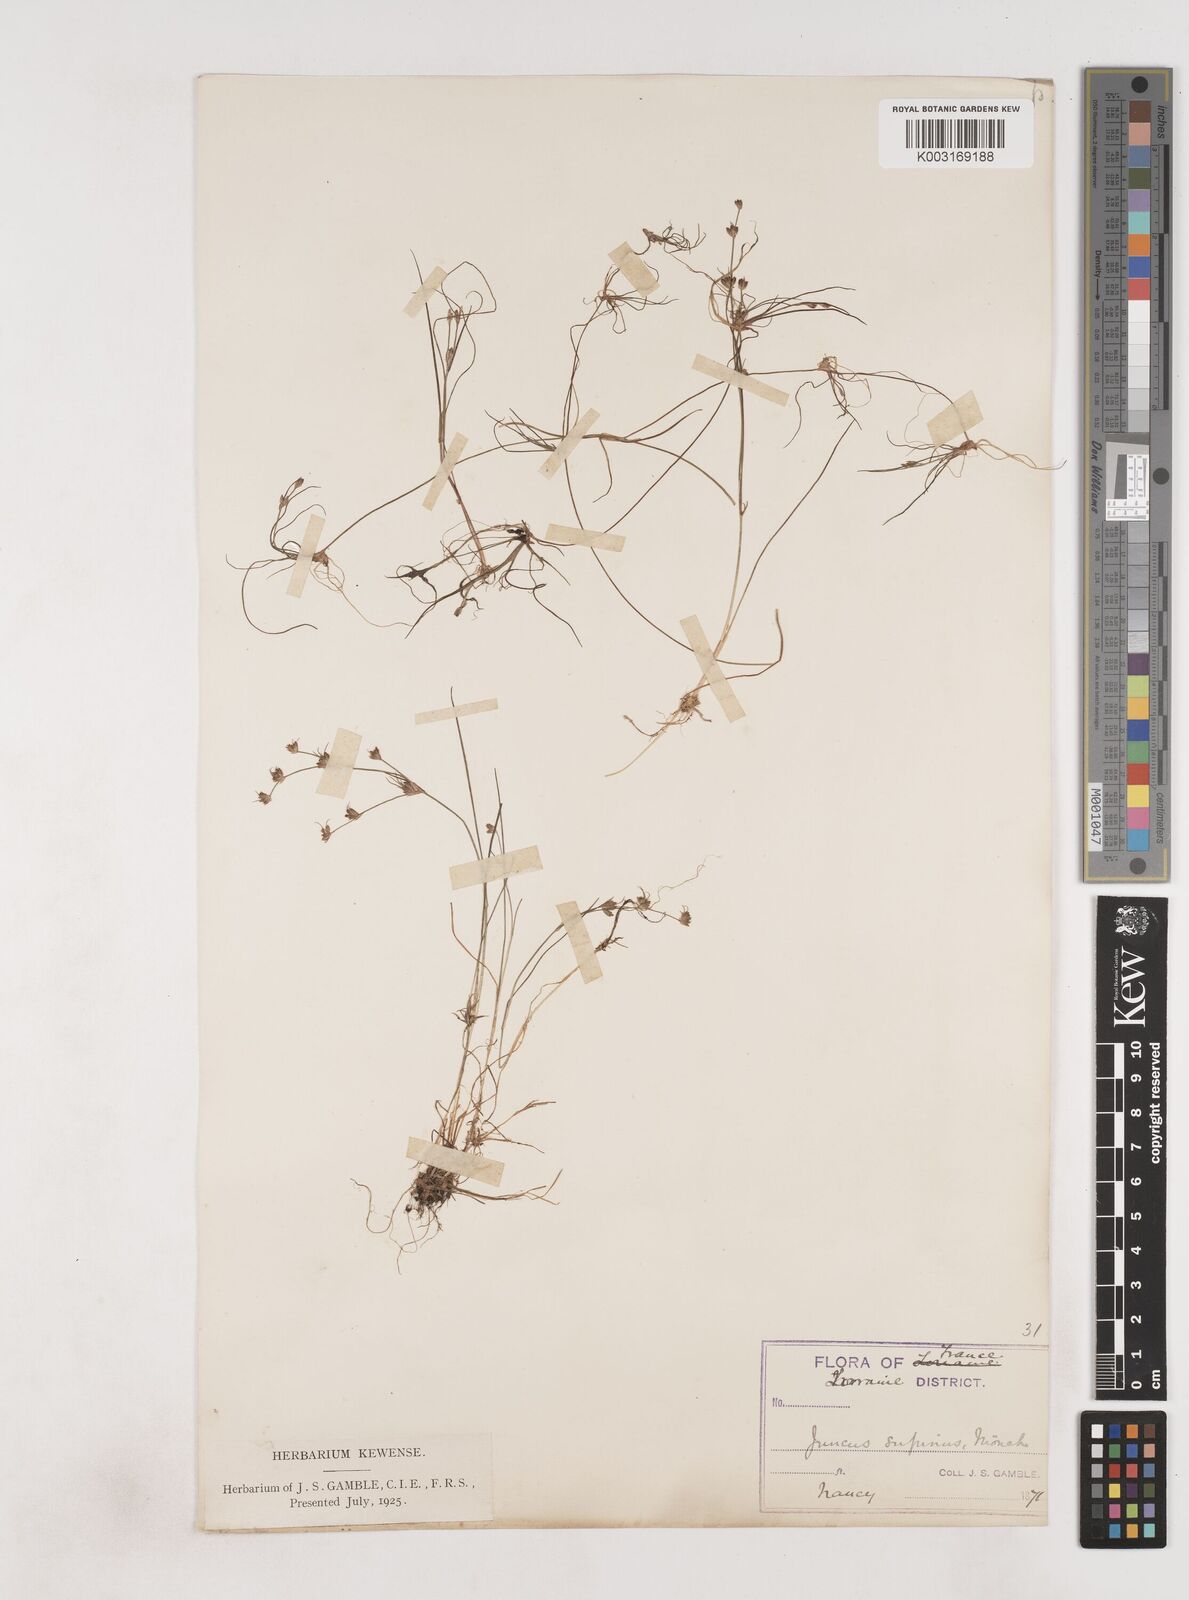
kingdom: Plantae
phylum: Tracheophyta
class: Liliopsida
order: Poales
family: Juncaceae
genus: Juncus
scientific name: Juncus bulbosus
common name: Bulbous rush
